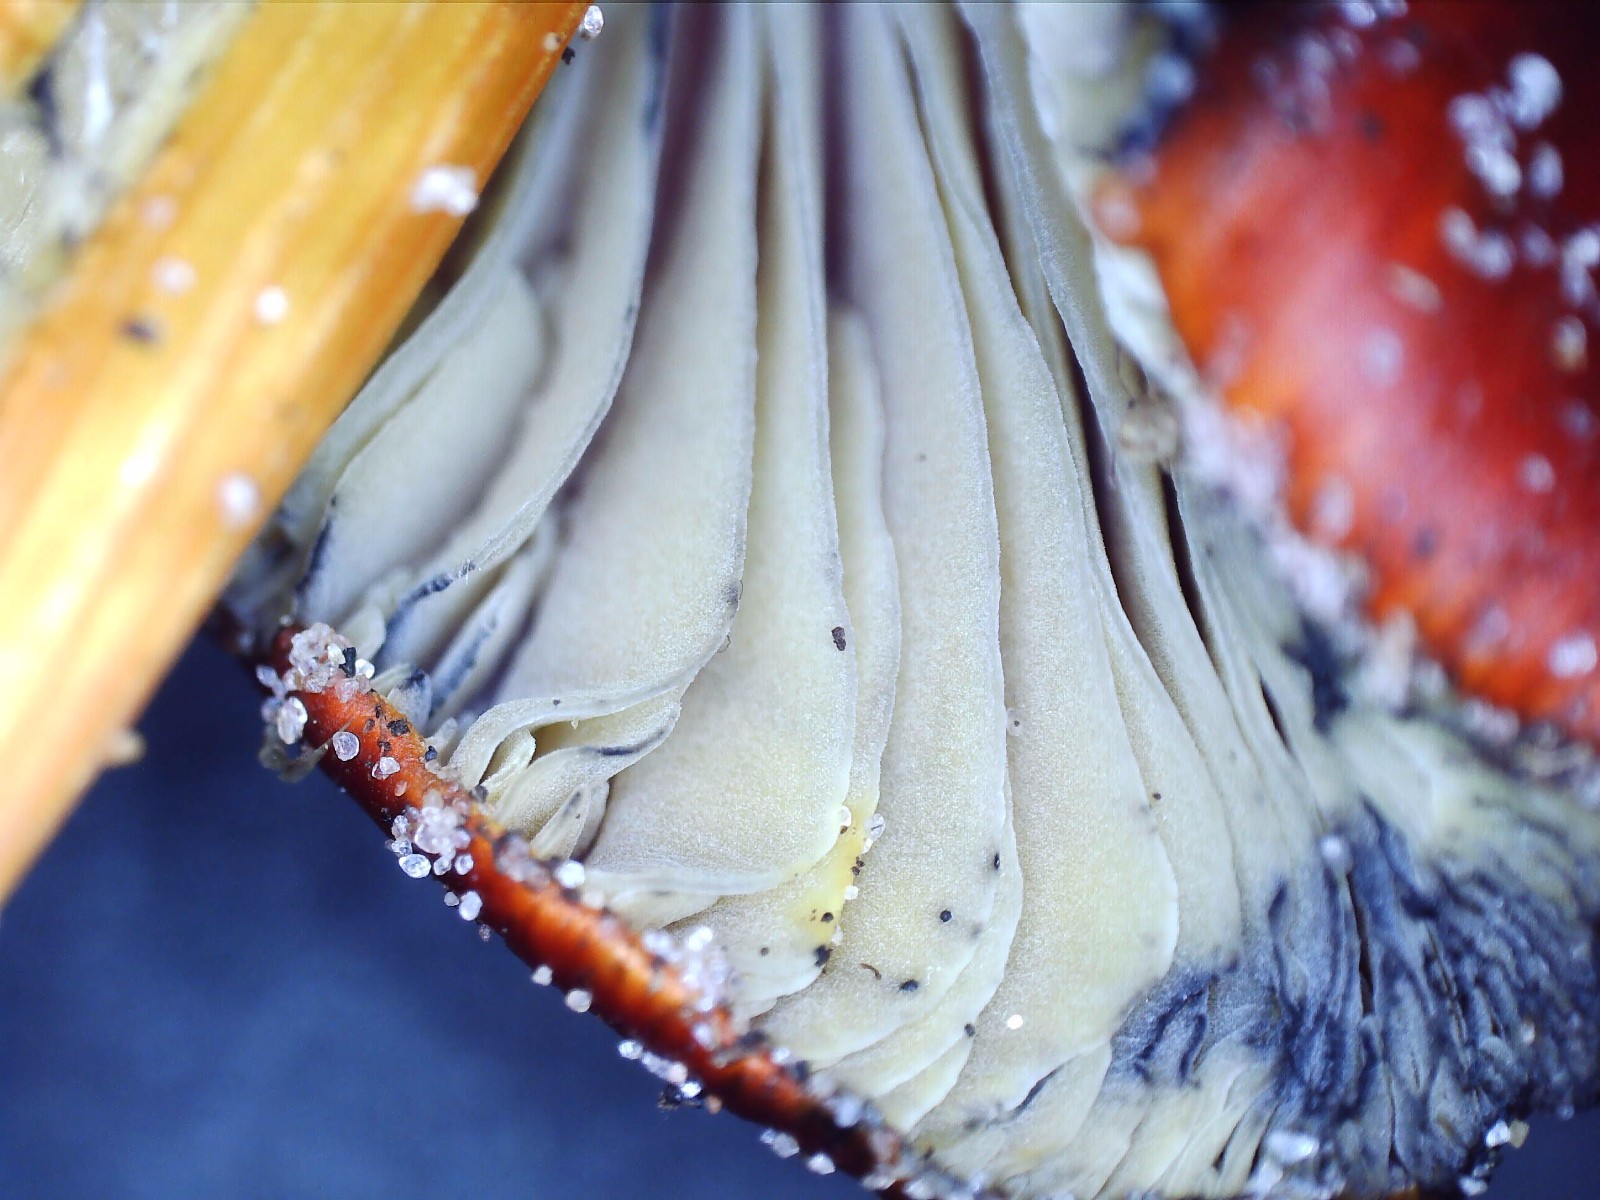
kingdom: Fungi
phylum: Basidiomycota
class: Agaricomycetes
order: Agaricales
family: Hygrophoraceae
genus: Hygrocybe
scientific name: Hygrocybe conica
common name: kegle-vokshat
